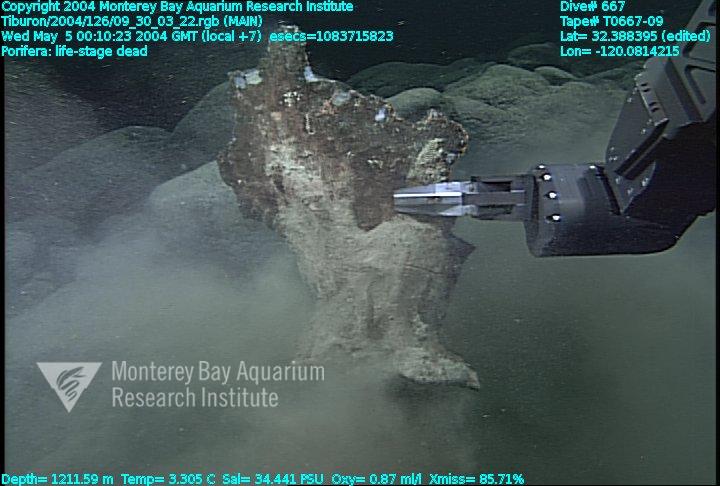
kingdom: Animalia
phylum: Porifera
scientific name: Porifera
